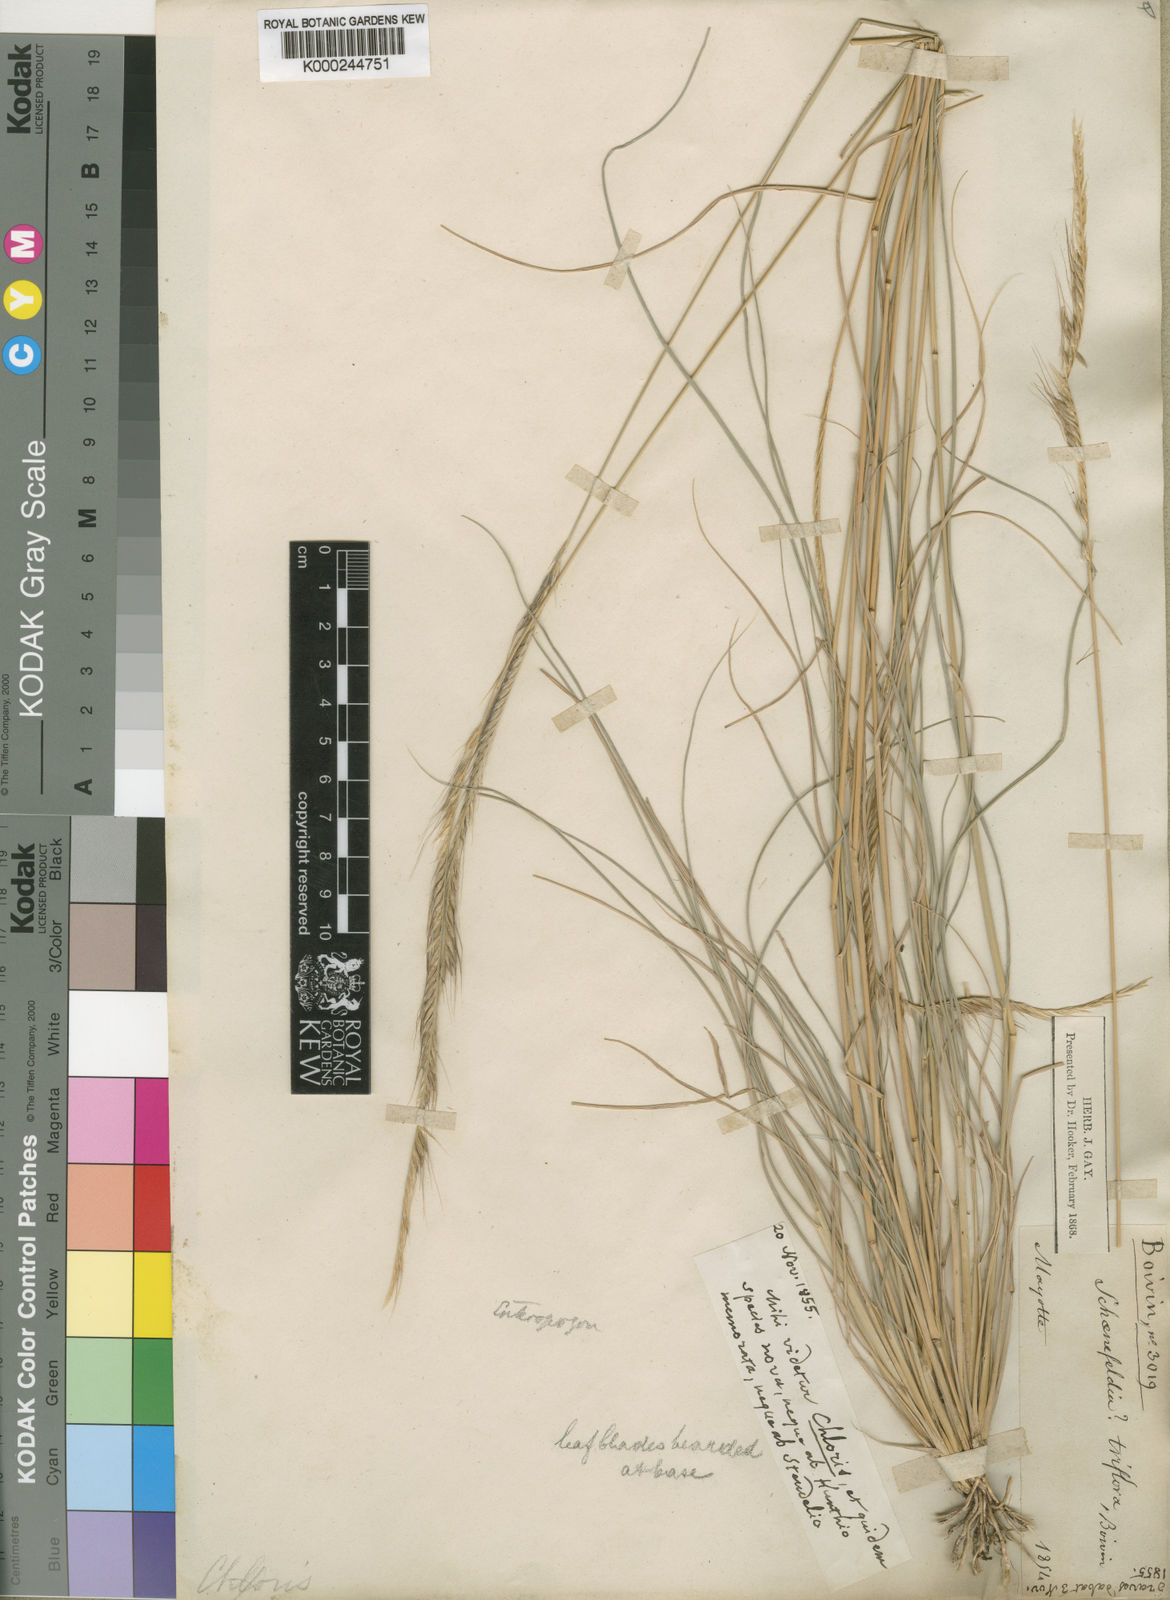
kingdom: Plantae
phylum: Tracheophyta
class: Liliopsida
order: Poales
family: Poaceae
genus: Enteropogon
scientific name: Enteropogon
